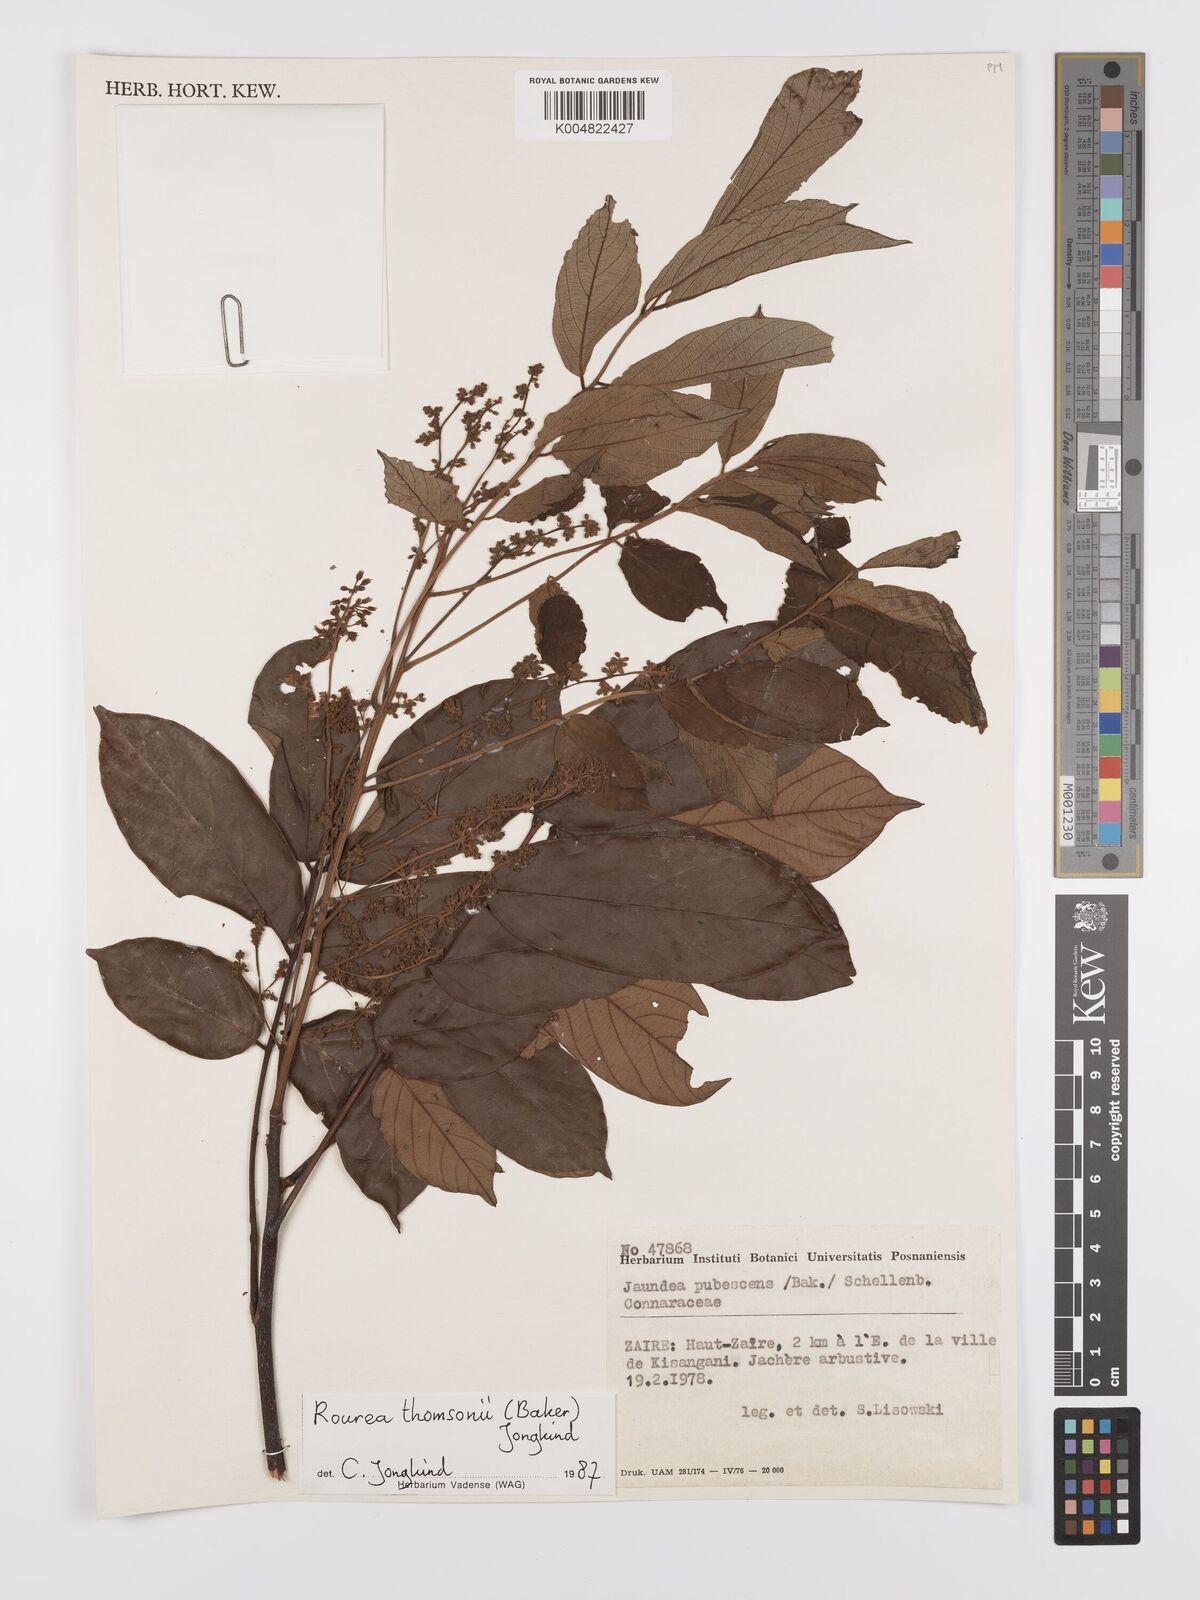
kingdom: Plantae
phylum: Tracheophyta
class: Magnoliopsida
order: Oxalidales
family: Connaraceae
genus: Rourea
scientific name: Rourea pubescens
